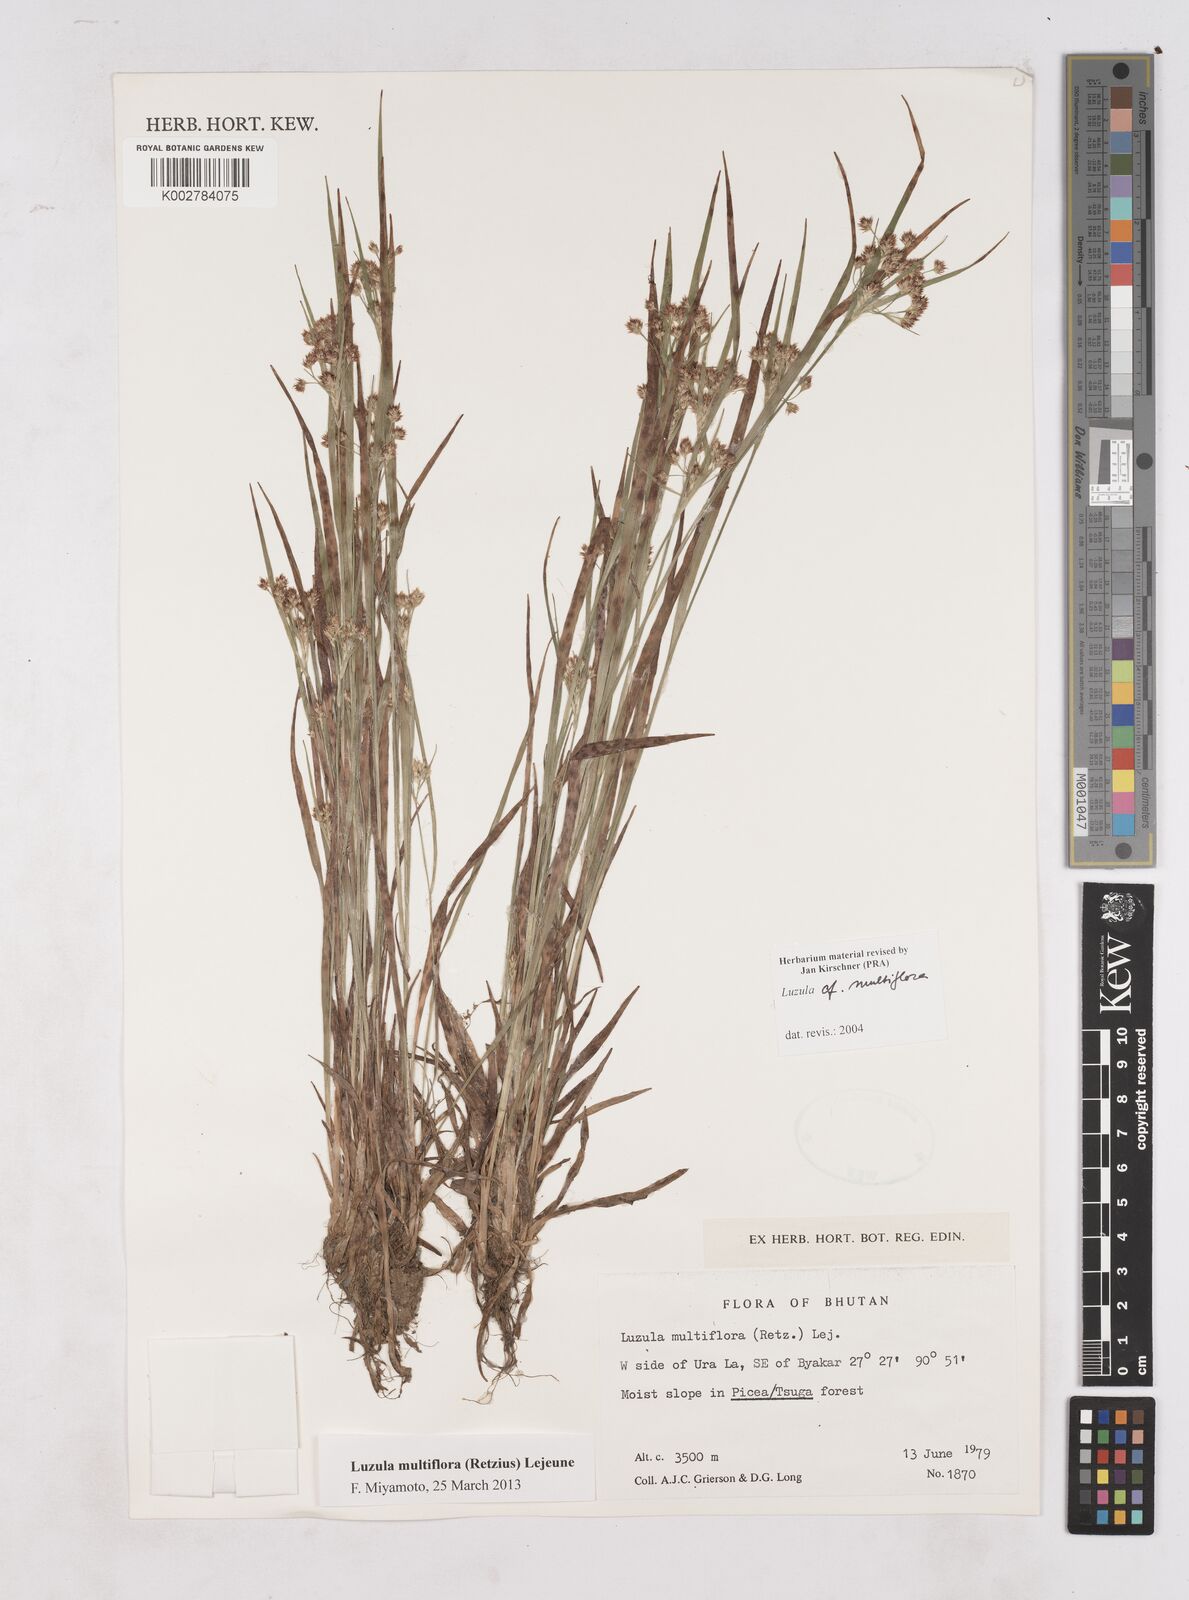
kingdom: Plantae
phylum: Tracheophyta
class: Liliopsida
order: Poales
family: Juncaceae
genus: Luzula
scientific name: Luzula campestris
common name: Field wood-rush
